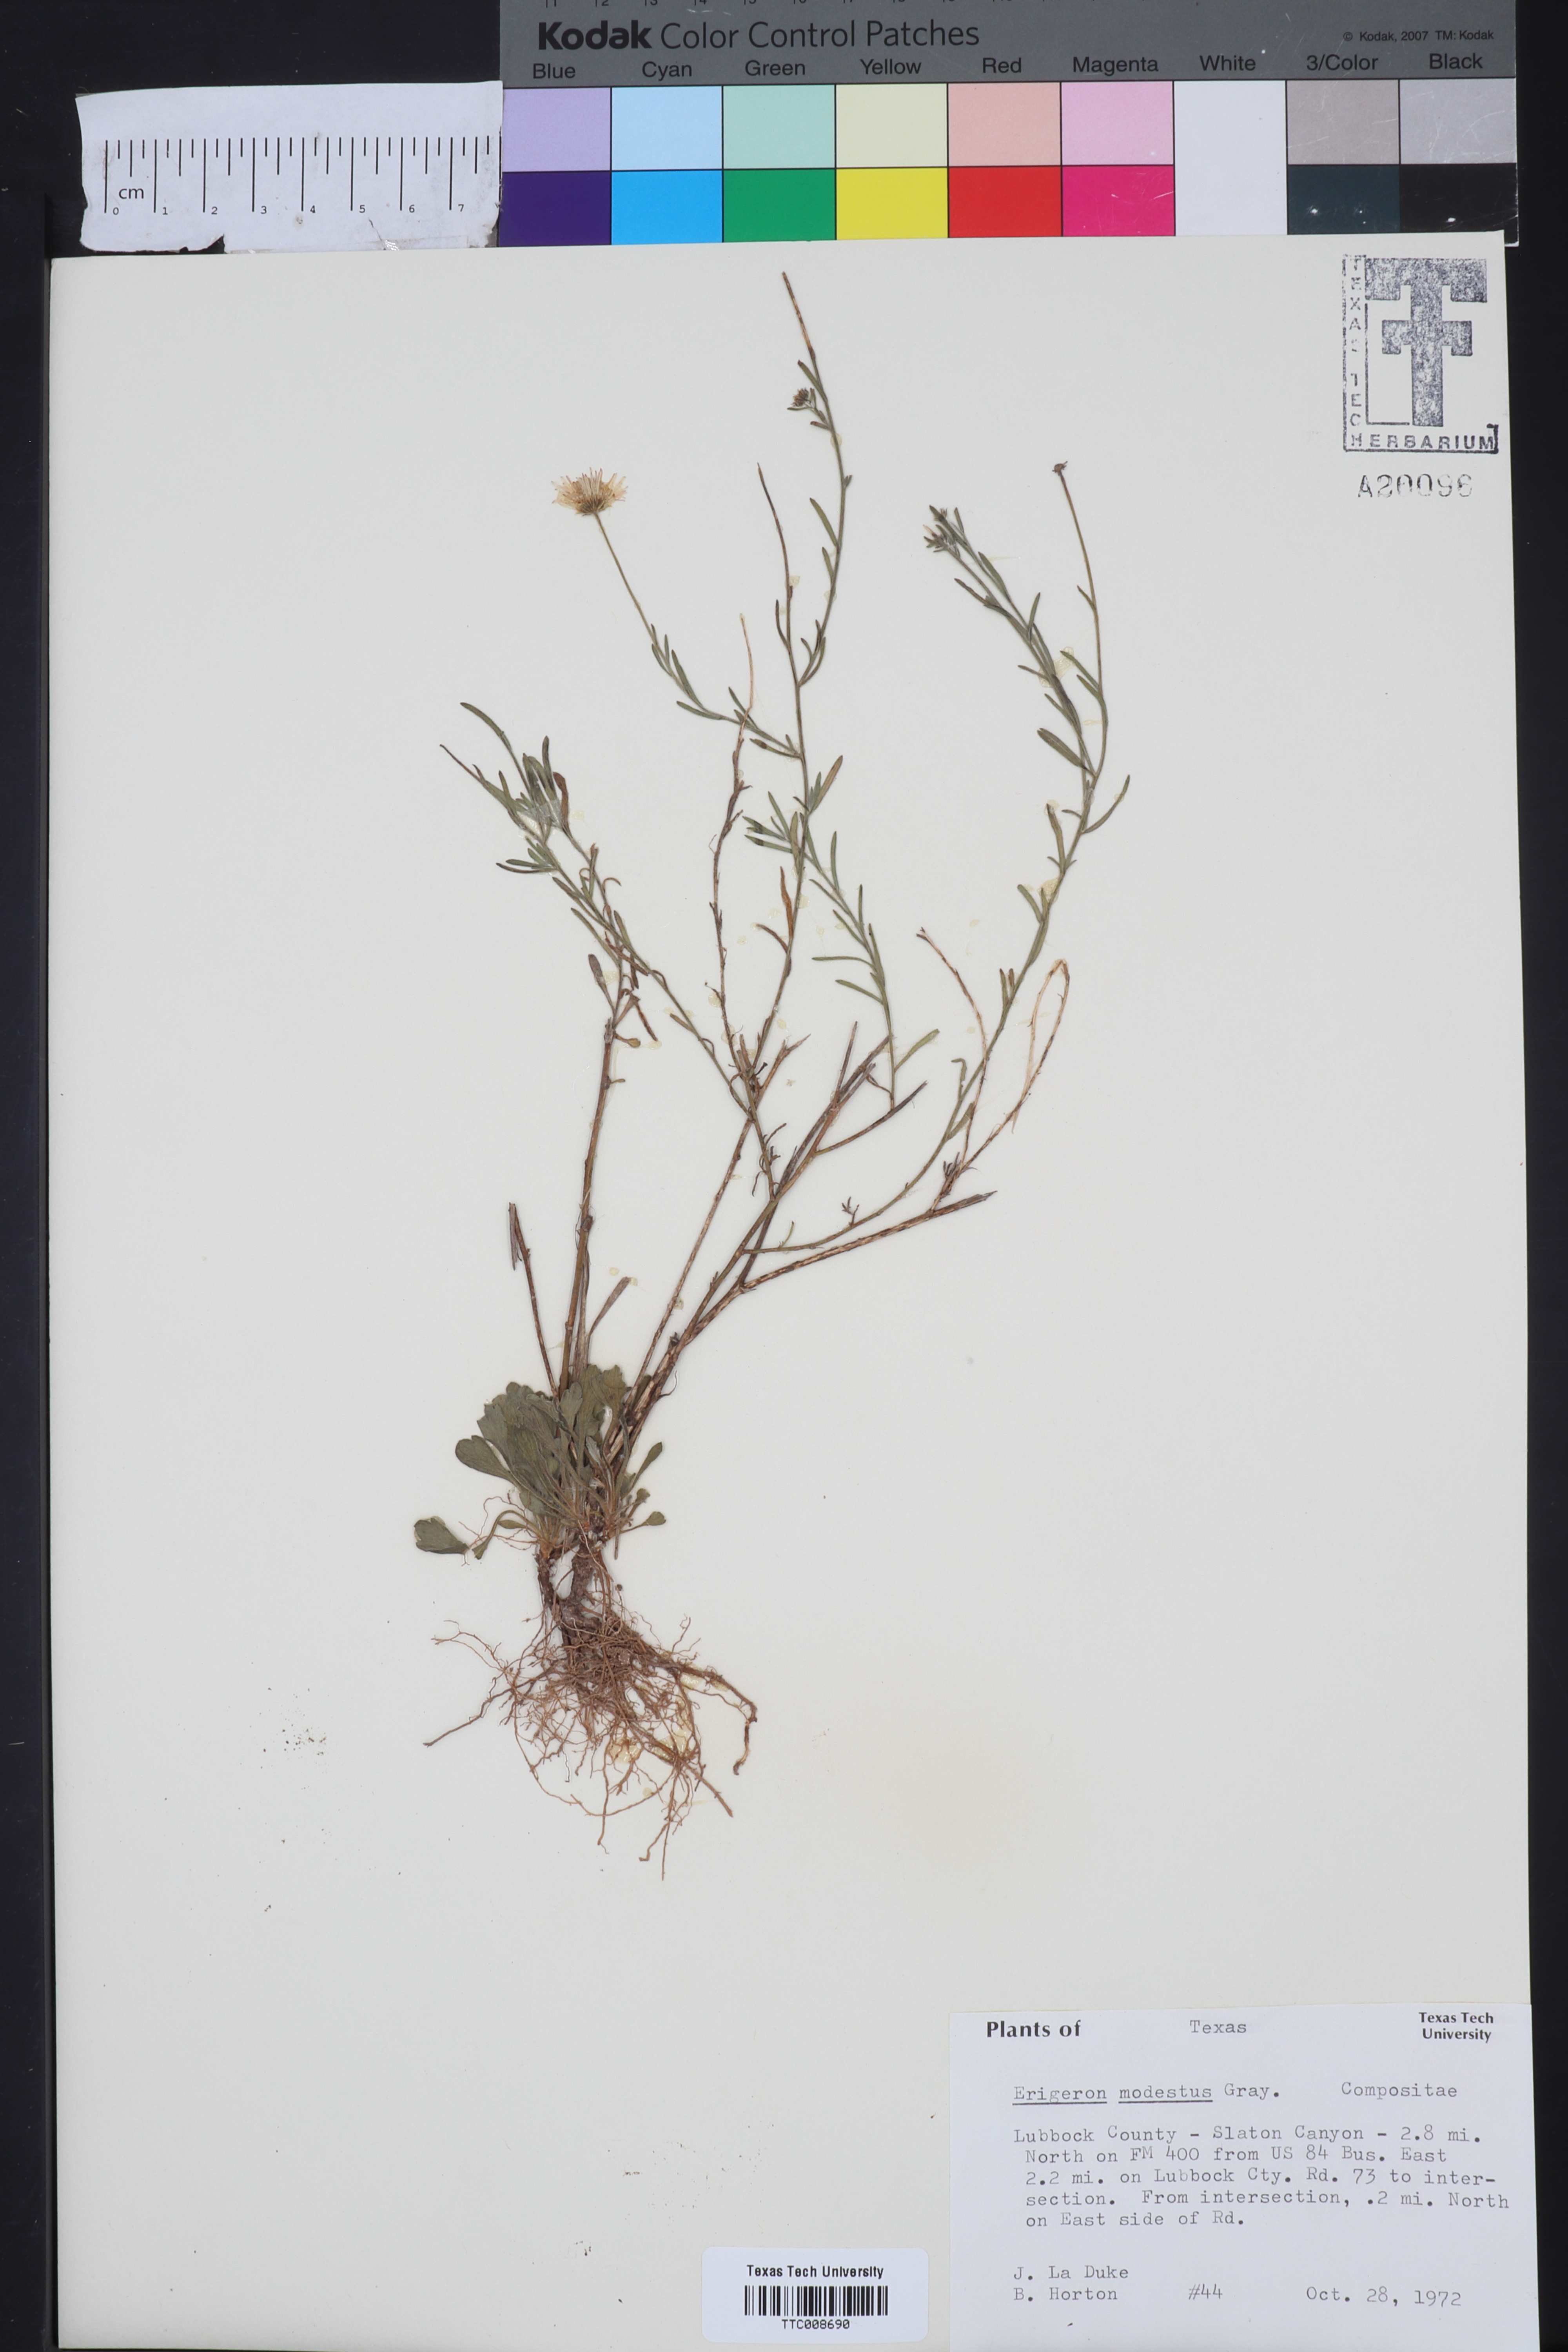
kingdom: Plantae
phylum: Tracheophyta
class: Magnoliopsida
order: Asterales
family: Asteraceae
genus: Erigeron
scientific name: Erigeron modestus
